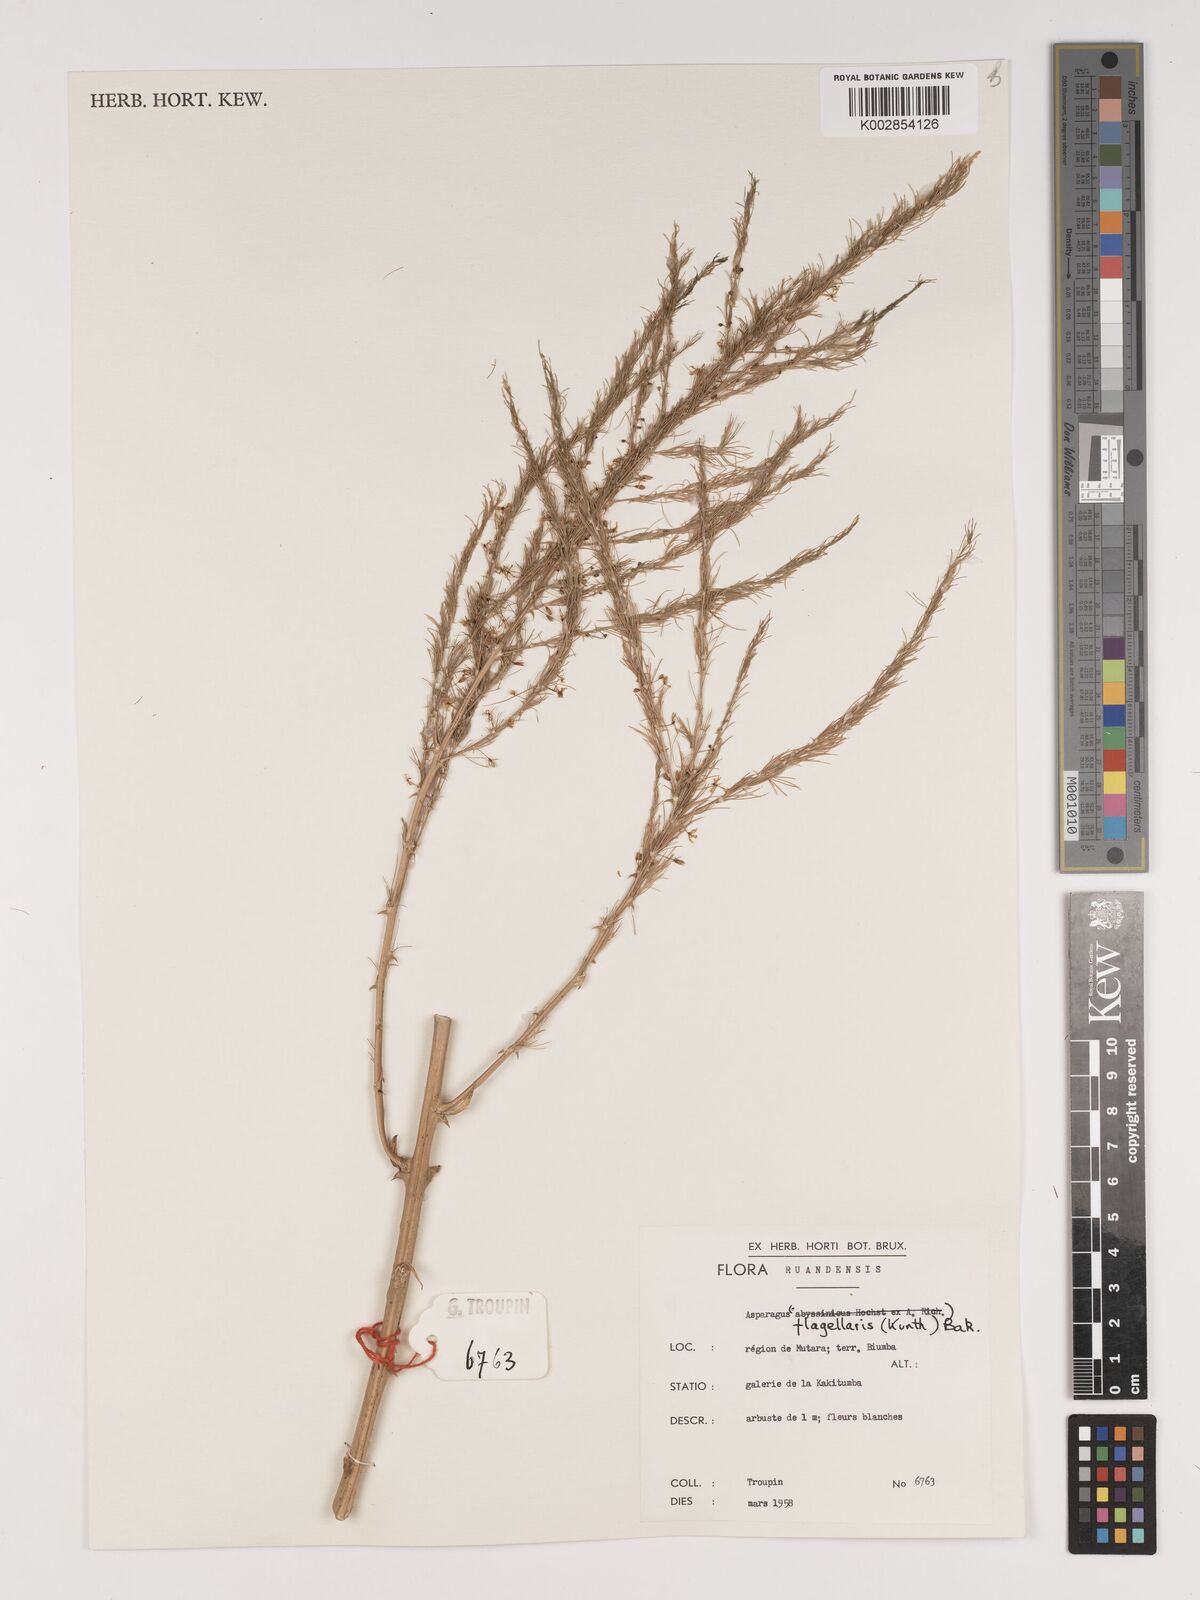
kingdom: Plantae
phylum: Tracheophyta
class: Liliopsida
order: Asparagales
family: Asparagaceae
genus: Asparagus
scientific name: Asparagus flagellaris
